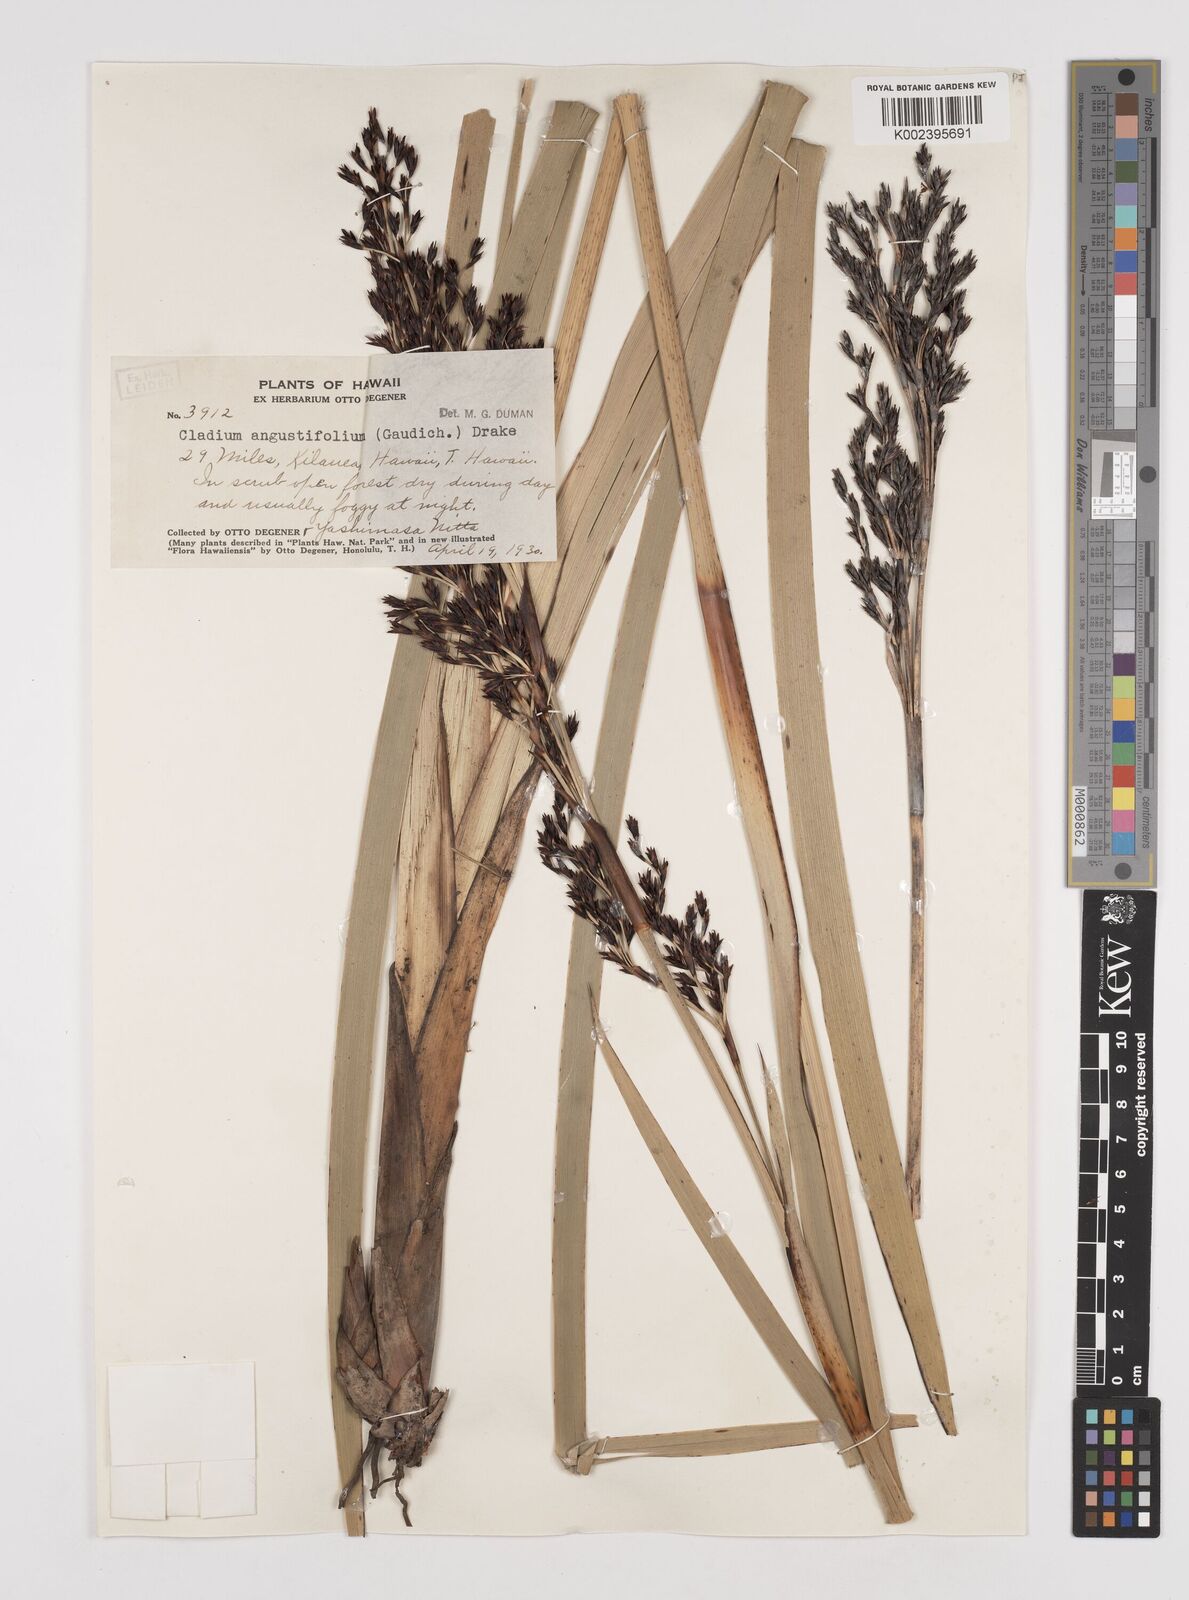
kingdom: Plantae
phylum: Tracheophyta
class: Liliopsida
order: Poales
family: Cyperaceae
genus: Machaerina
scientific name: Machaerina angustifolia
